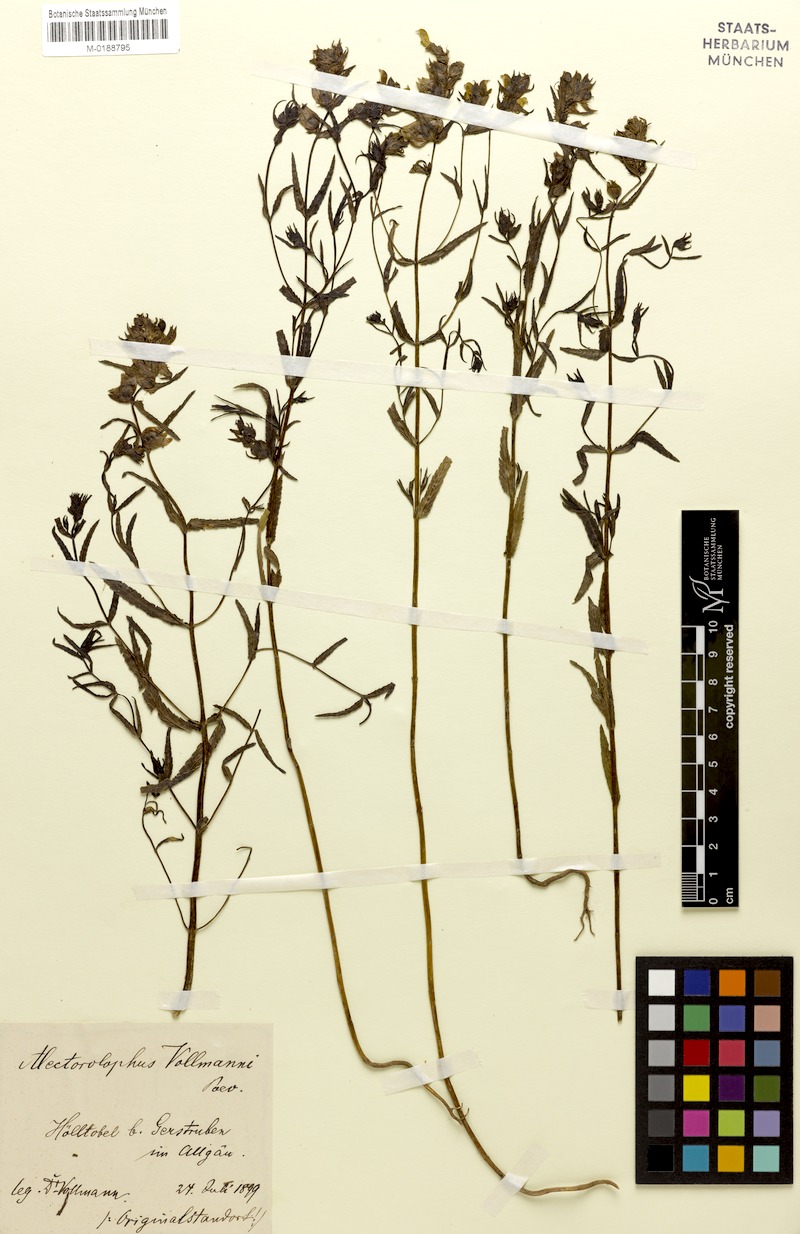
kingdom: Plantae
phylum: Tracheophyta
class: Magnoliopsida
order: Lamiales
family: Orobanchaceae
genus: Rhinanthus
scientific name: Rhinanthus glacialis
